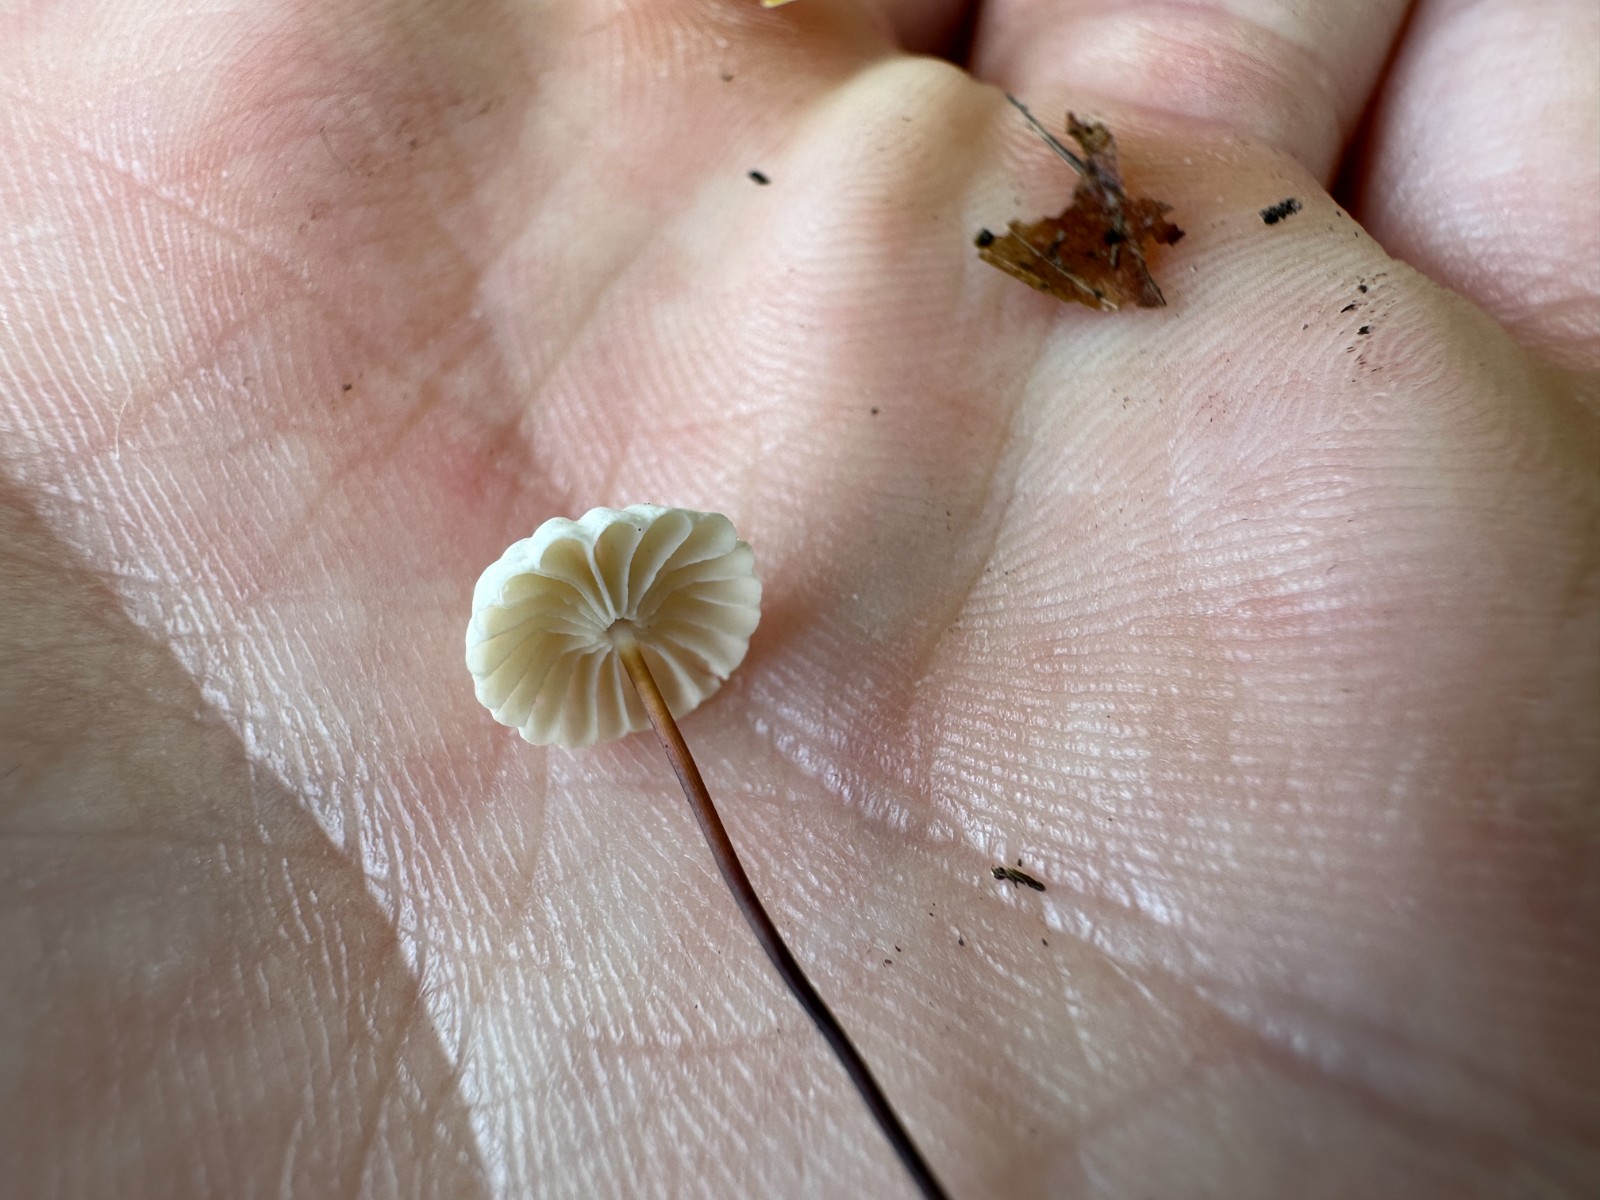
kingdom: Fungi
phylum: Basidiomycota
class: Agaricomycetes
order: Agaricales
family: Marasmiaceae
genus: Marasmius
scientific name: Marasmius rotula
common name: hjul-bruskhat
